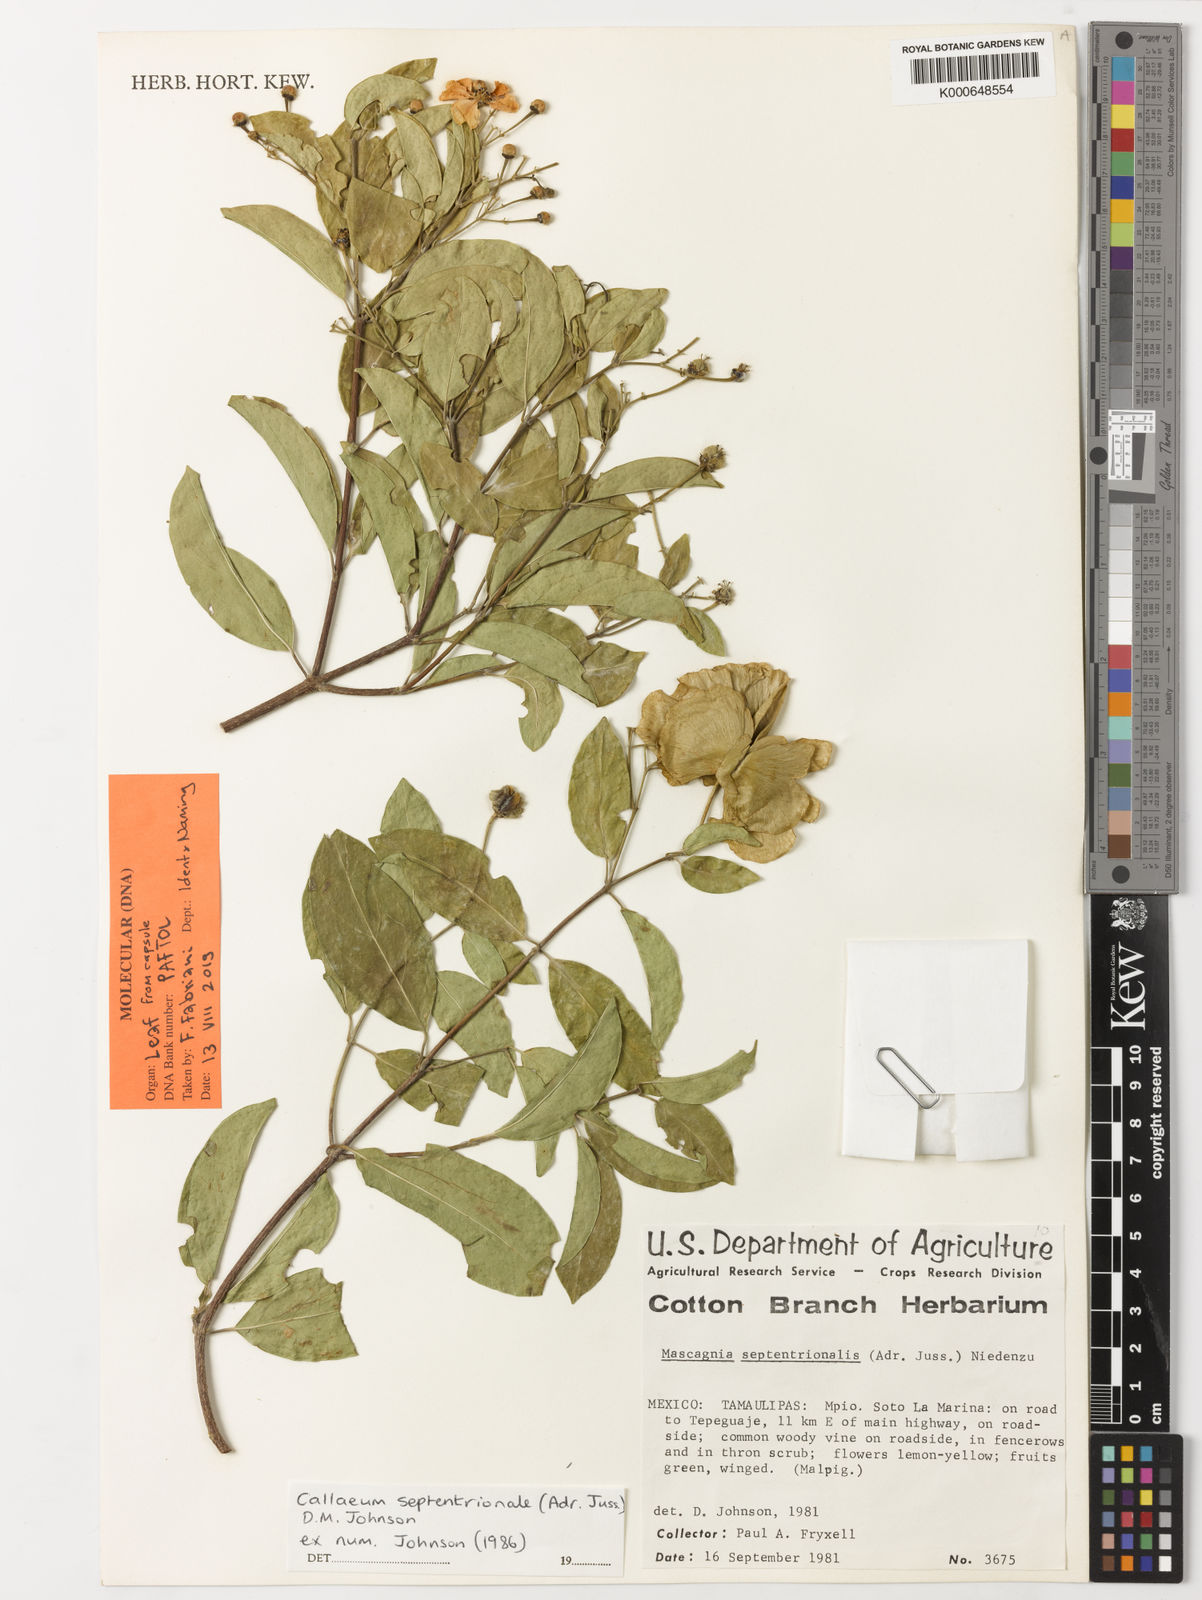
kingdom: Plantae
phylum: Tracheophyta
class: Magnoliopsida
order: Malpighiales
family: Malpighiaceae
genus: Callaeum
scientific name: Callaeum septentrionale
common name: Naranjillo
